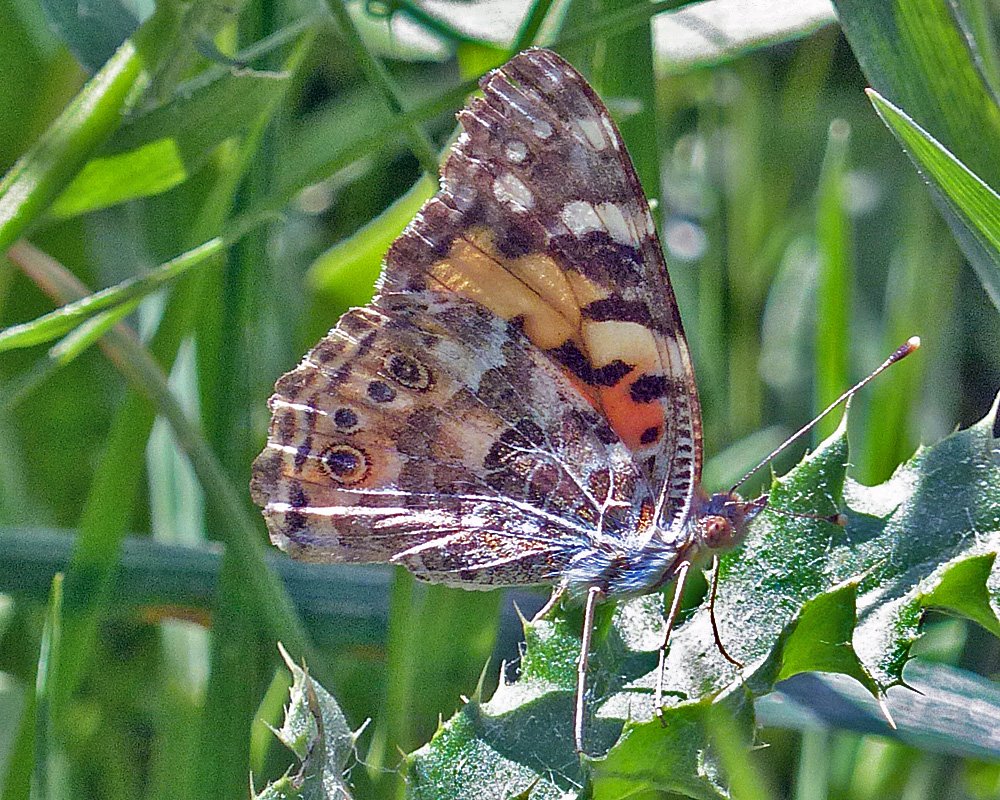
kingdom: Animalia
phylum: Arthropoda
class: Insecta
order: Lepidoptera
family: Nymphalidae
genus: Vanessa
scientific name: Vanessa cardui
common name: Painted Lady
